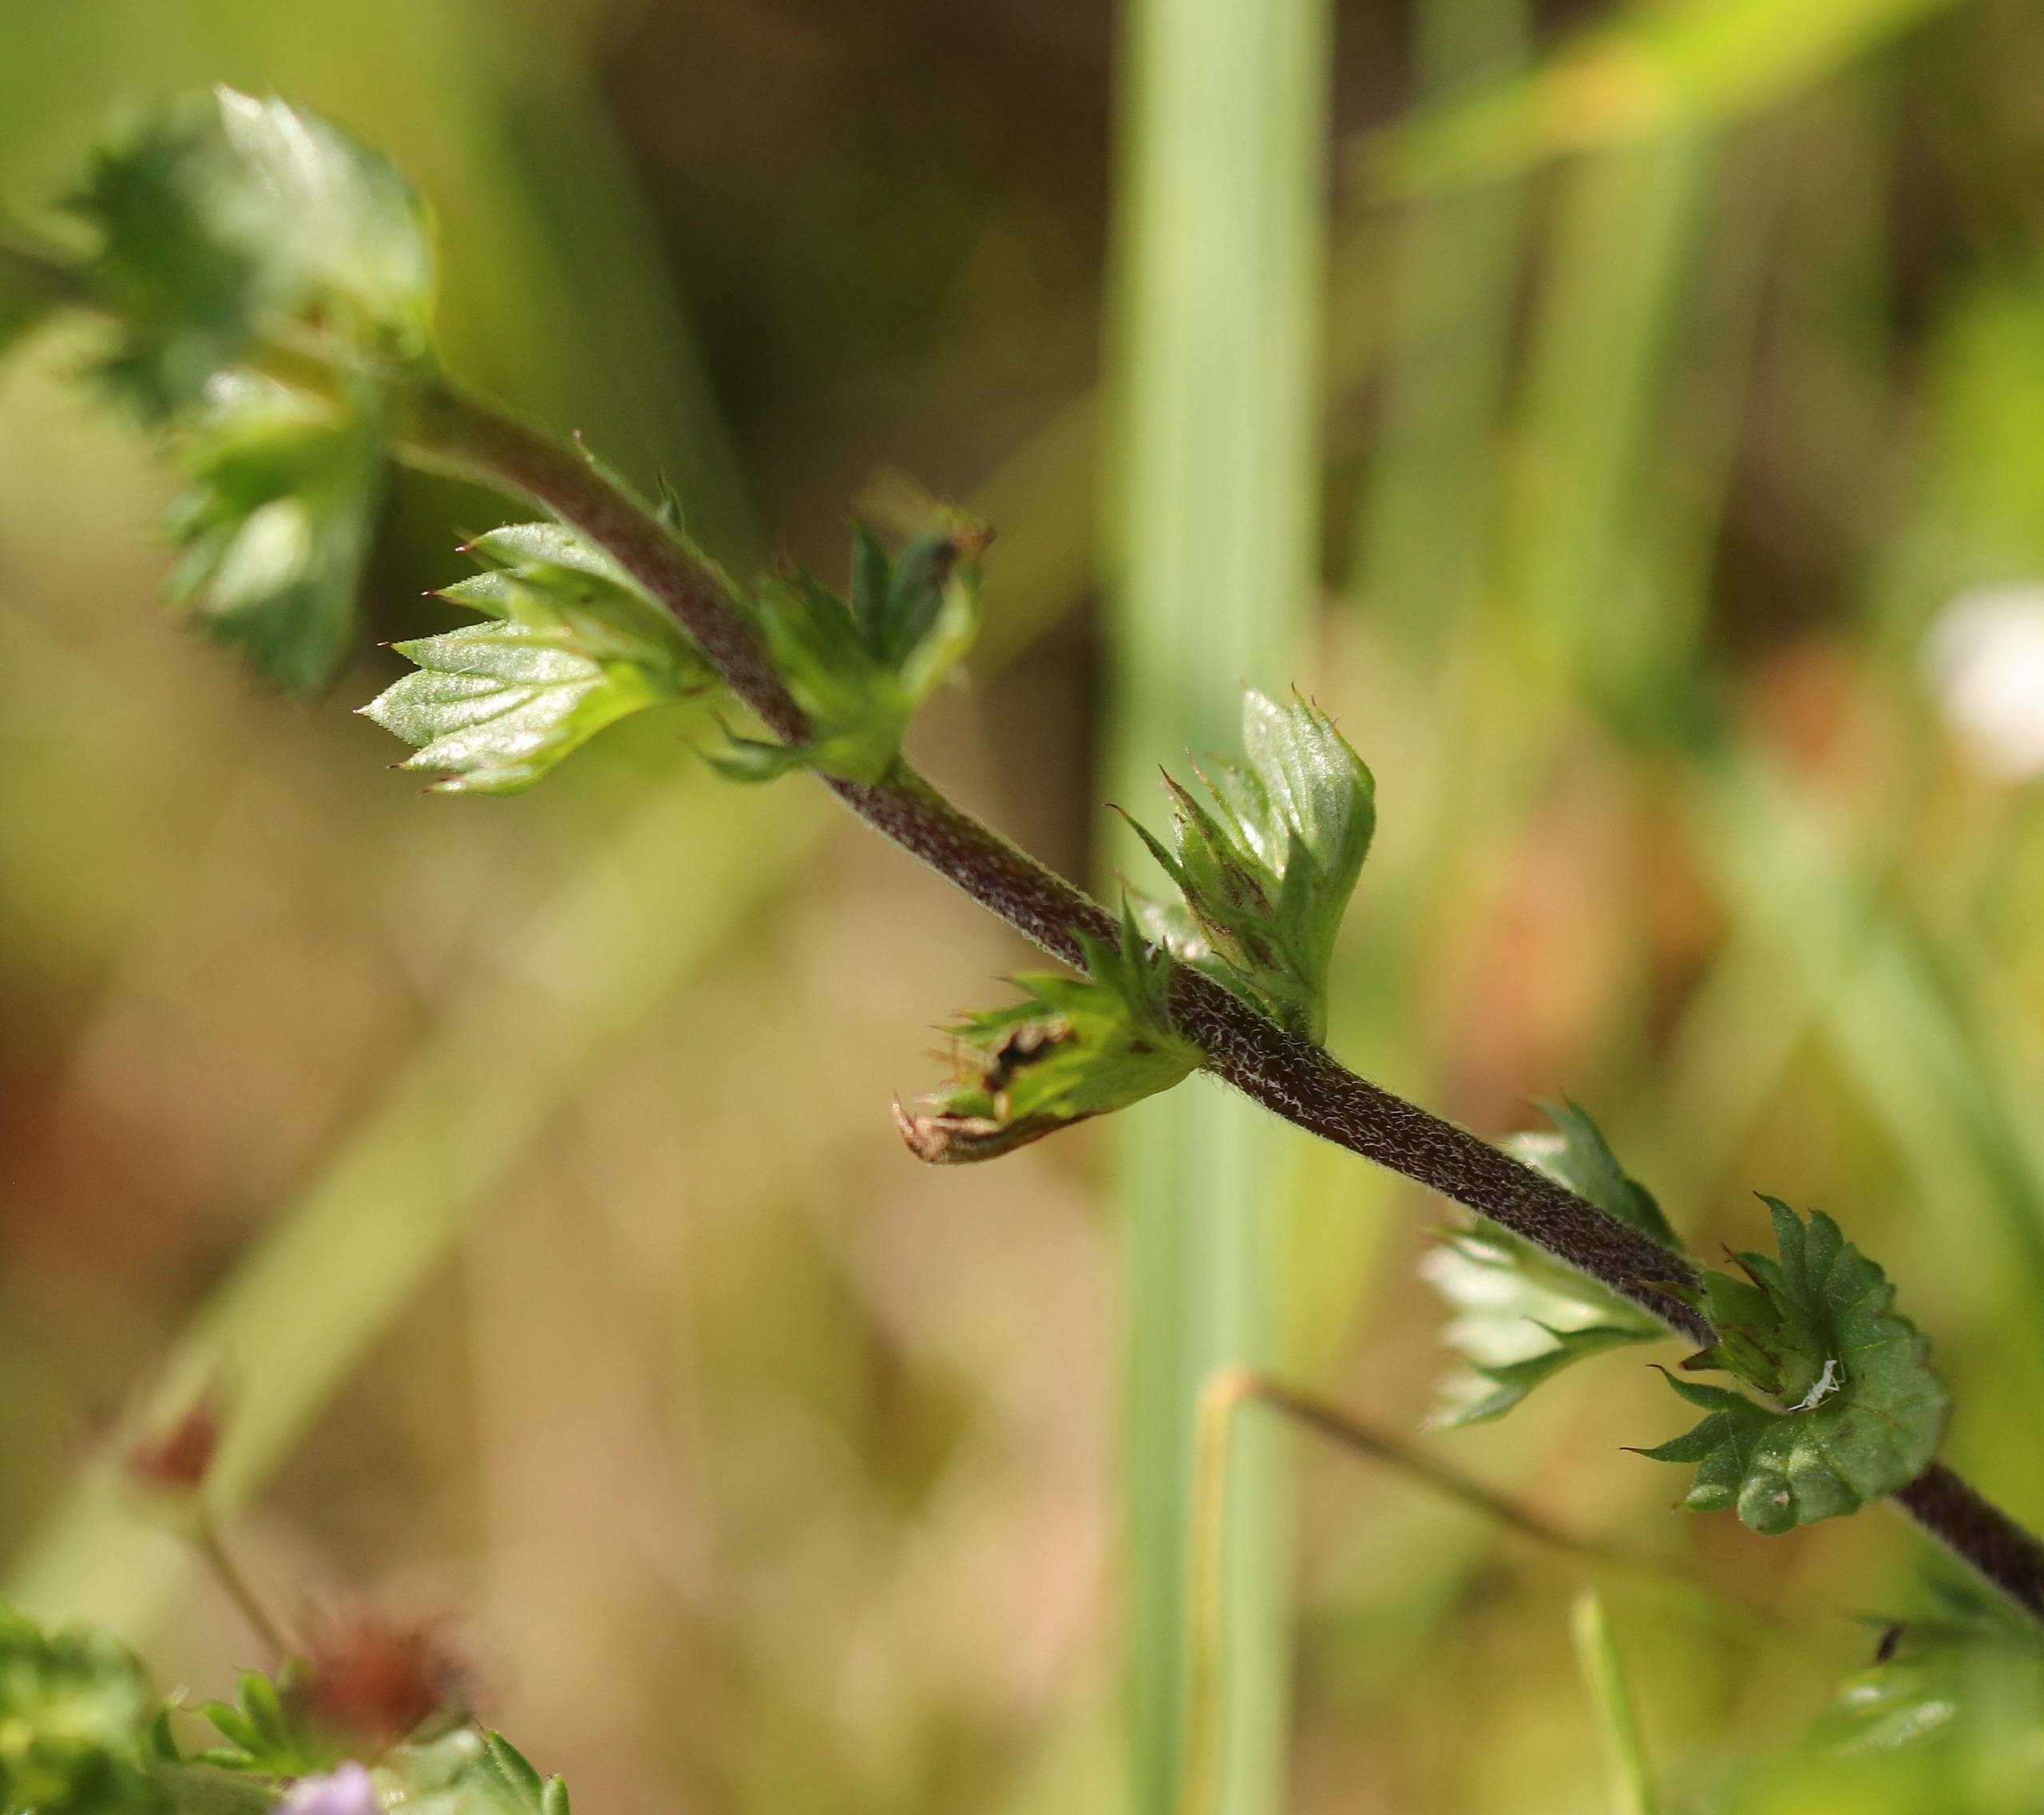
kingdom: Plantae
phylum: Tracheophyta
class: Magnoliopsida
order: Lamiales
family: Orobanchaceae
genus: Euphrasia
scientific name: Euphrasia stricta
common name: Spids øjentrøst
